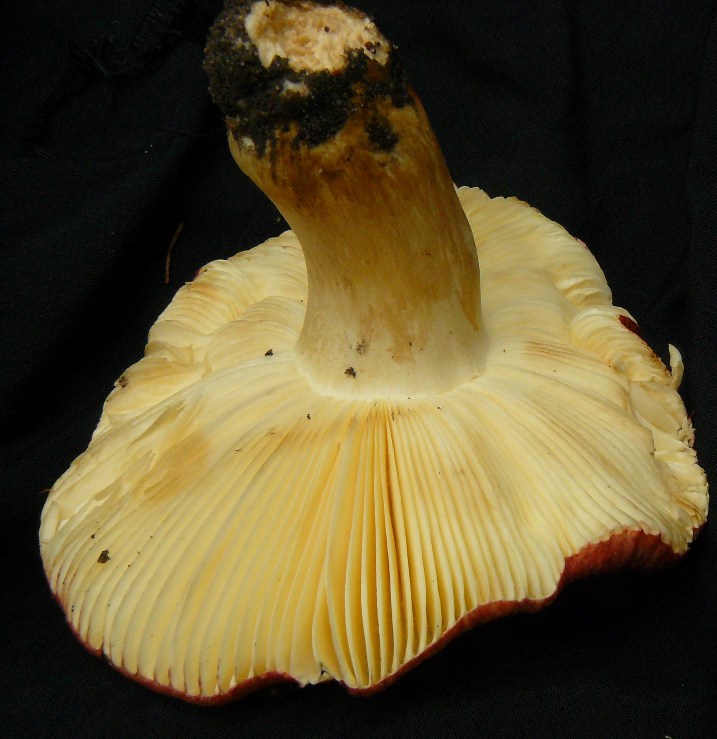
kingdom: Fungi
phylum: Basidiomycota
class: Agaricomycetes
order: Russulales
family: Russulaceae
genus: Russula
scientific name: Russula graveolens
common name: bugtet skørhat
